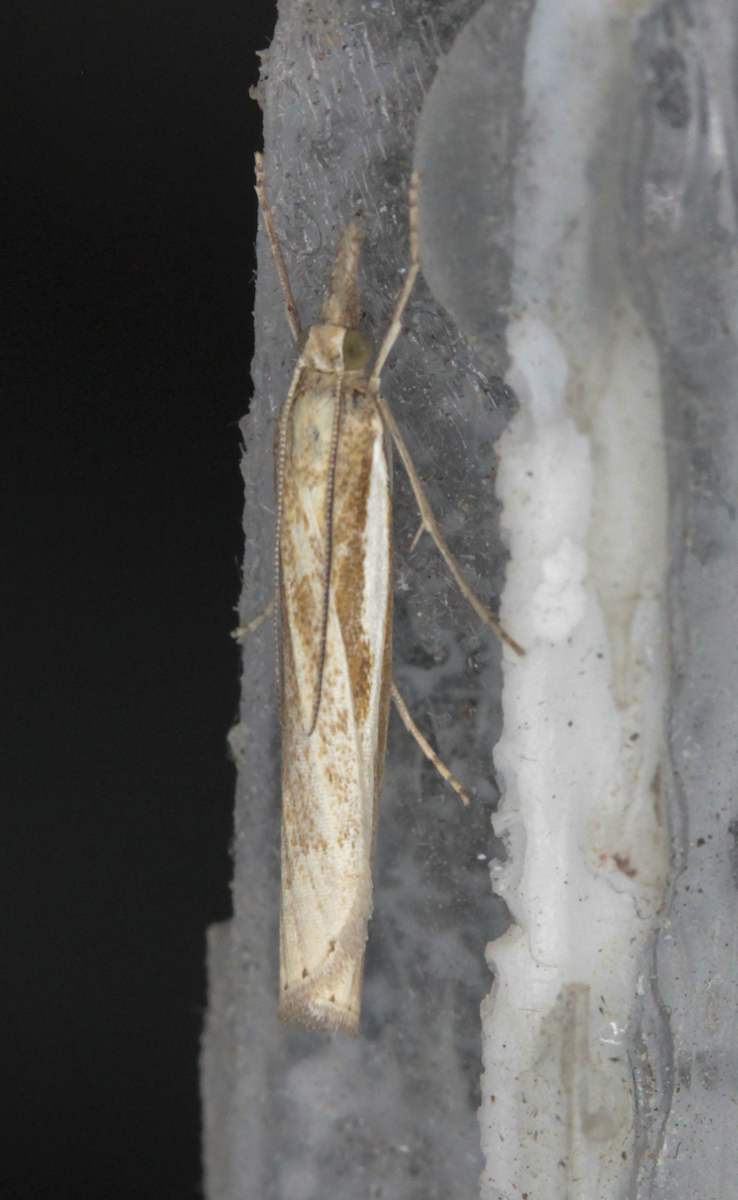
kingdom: Animalia
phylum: Arthropoda
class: Insecta
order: Lepidoptera
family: Crambidae
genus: Agriphila
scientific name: Agriphila tristellus
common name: Common grass-veneer
